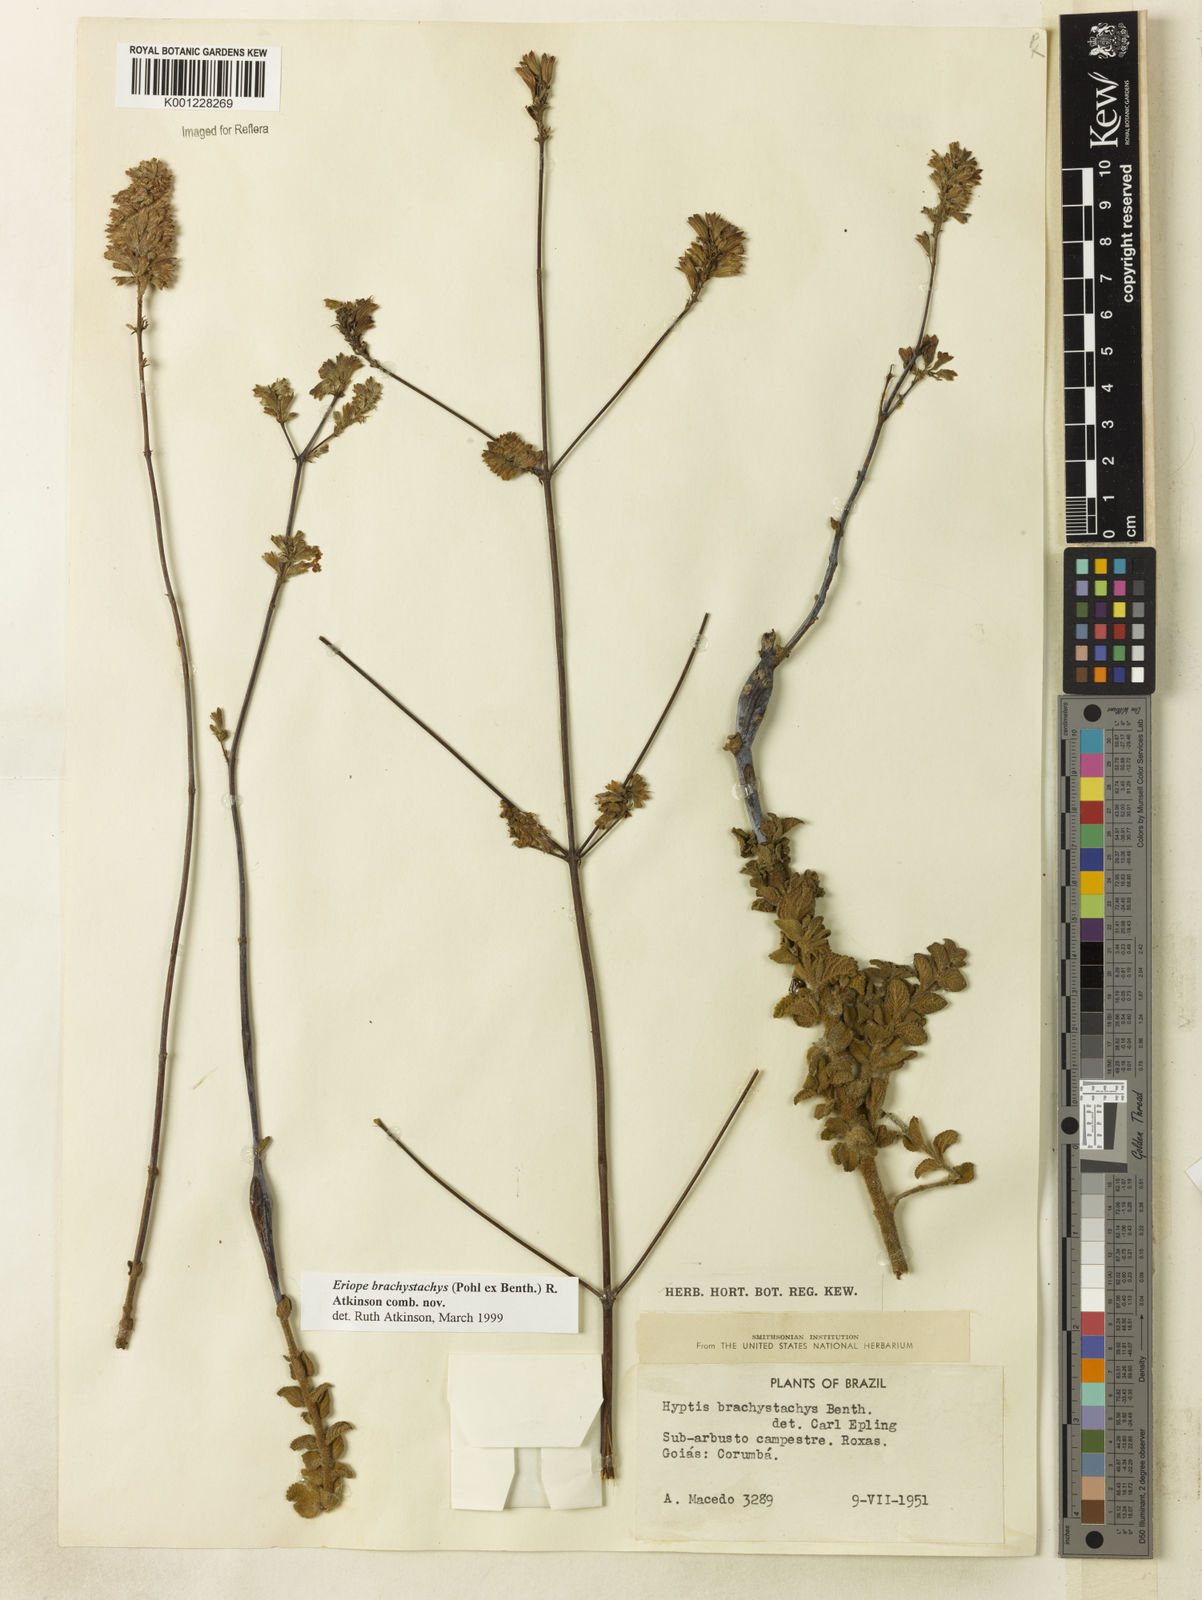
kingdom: Plantae
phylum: Tracheophyta
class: Magnoliopsida
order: Lamiales
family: Lamiaceae
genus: Hypenia
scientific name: Hypenia brachystachys
